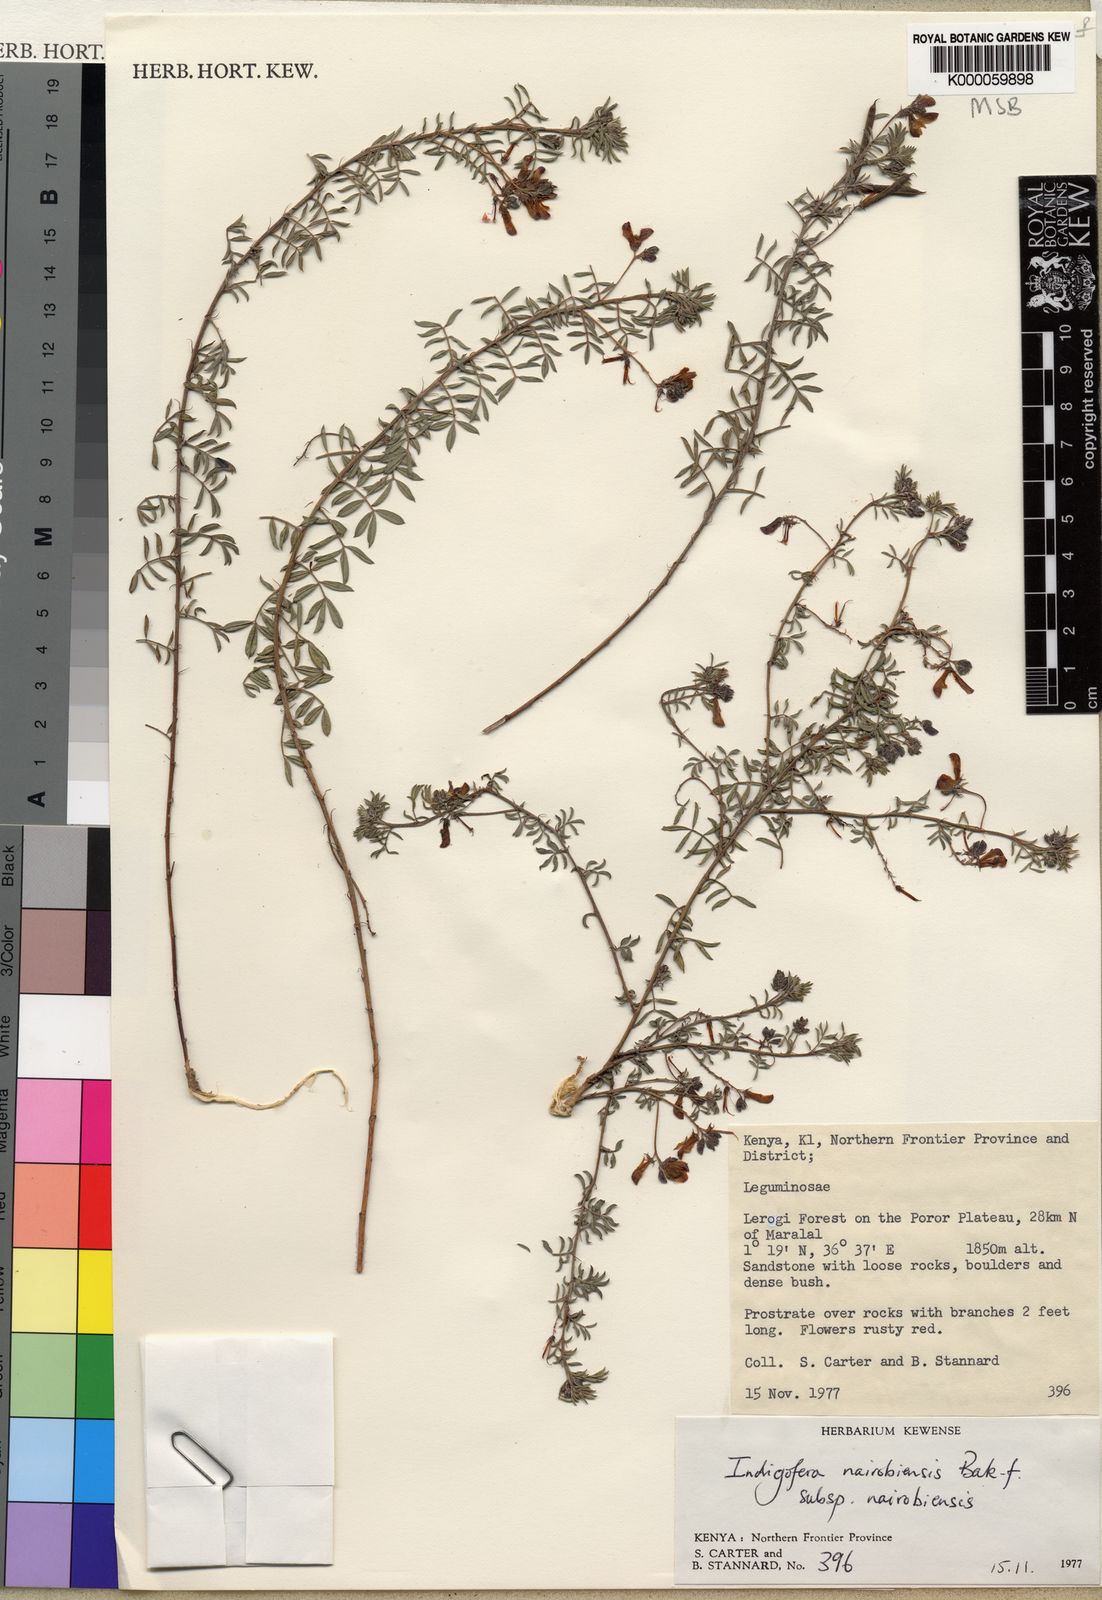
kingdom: Plantae
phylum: Tracheophyta
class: Magnoliopsida
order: Fabales
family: Fabaceae
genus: Indigofera
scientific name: Indigofera nairobiensis
